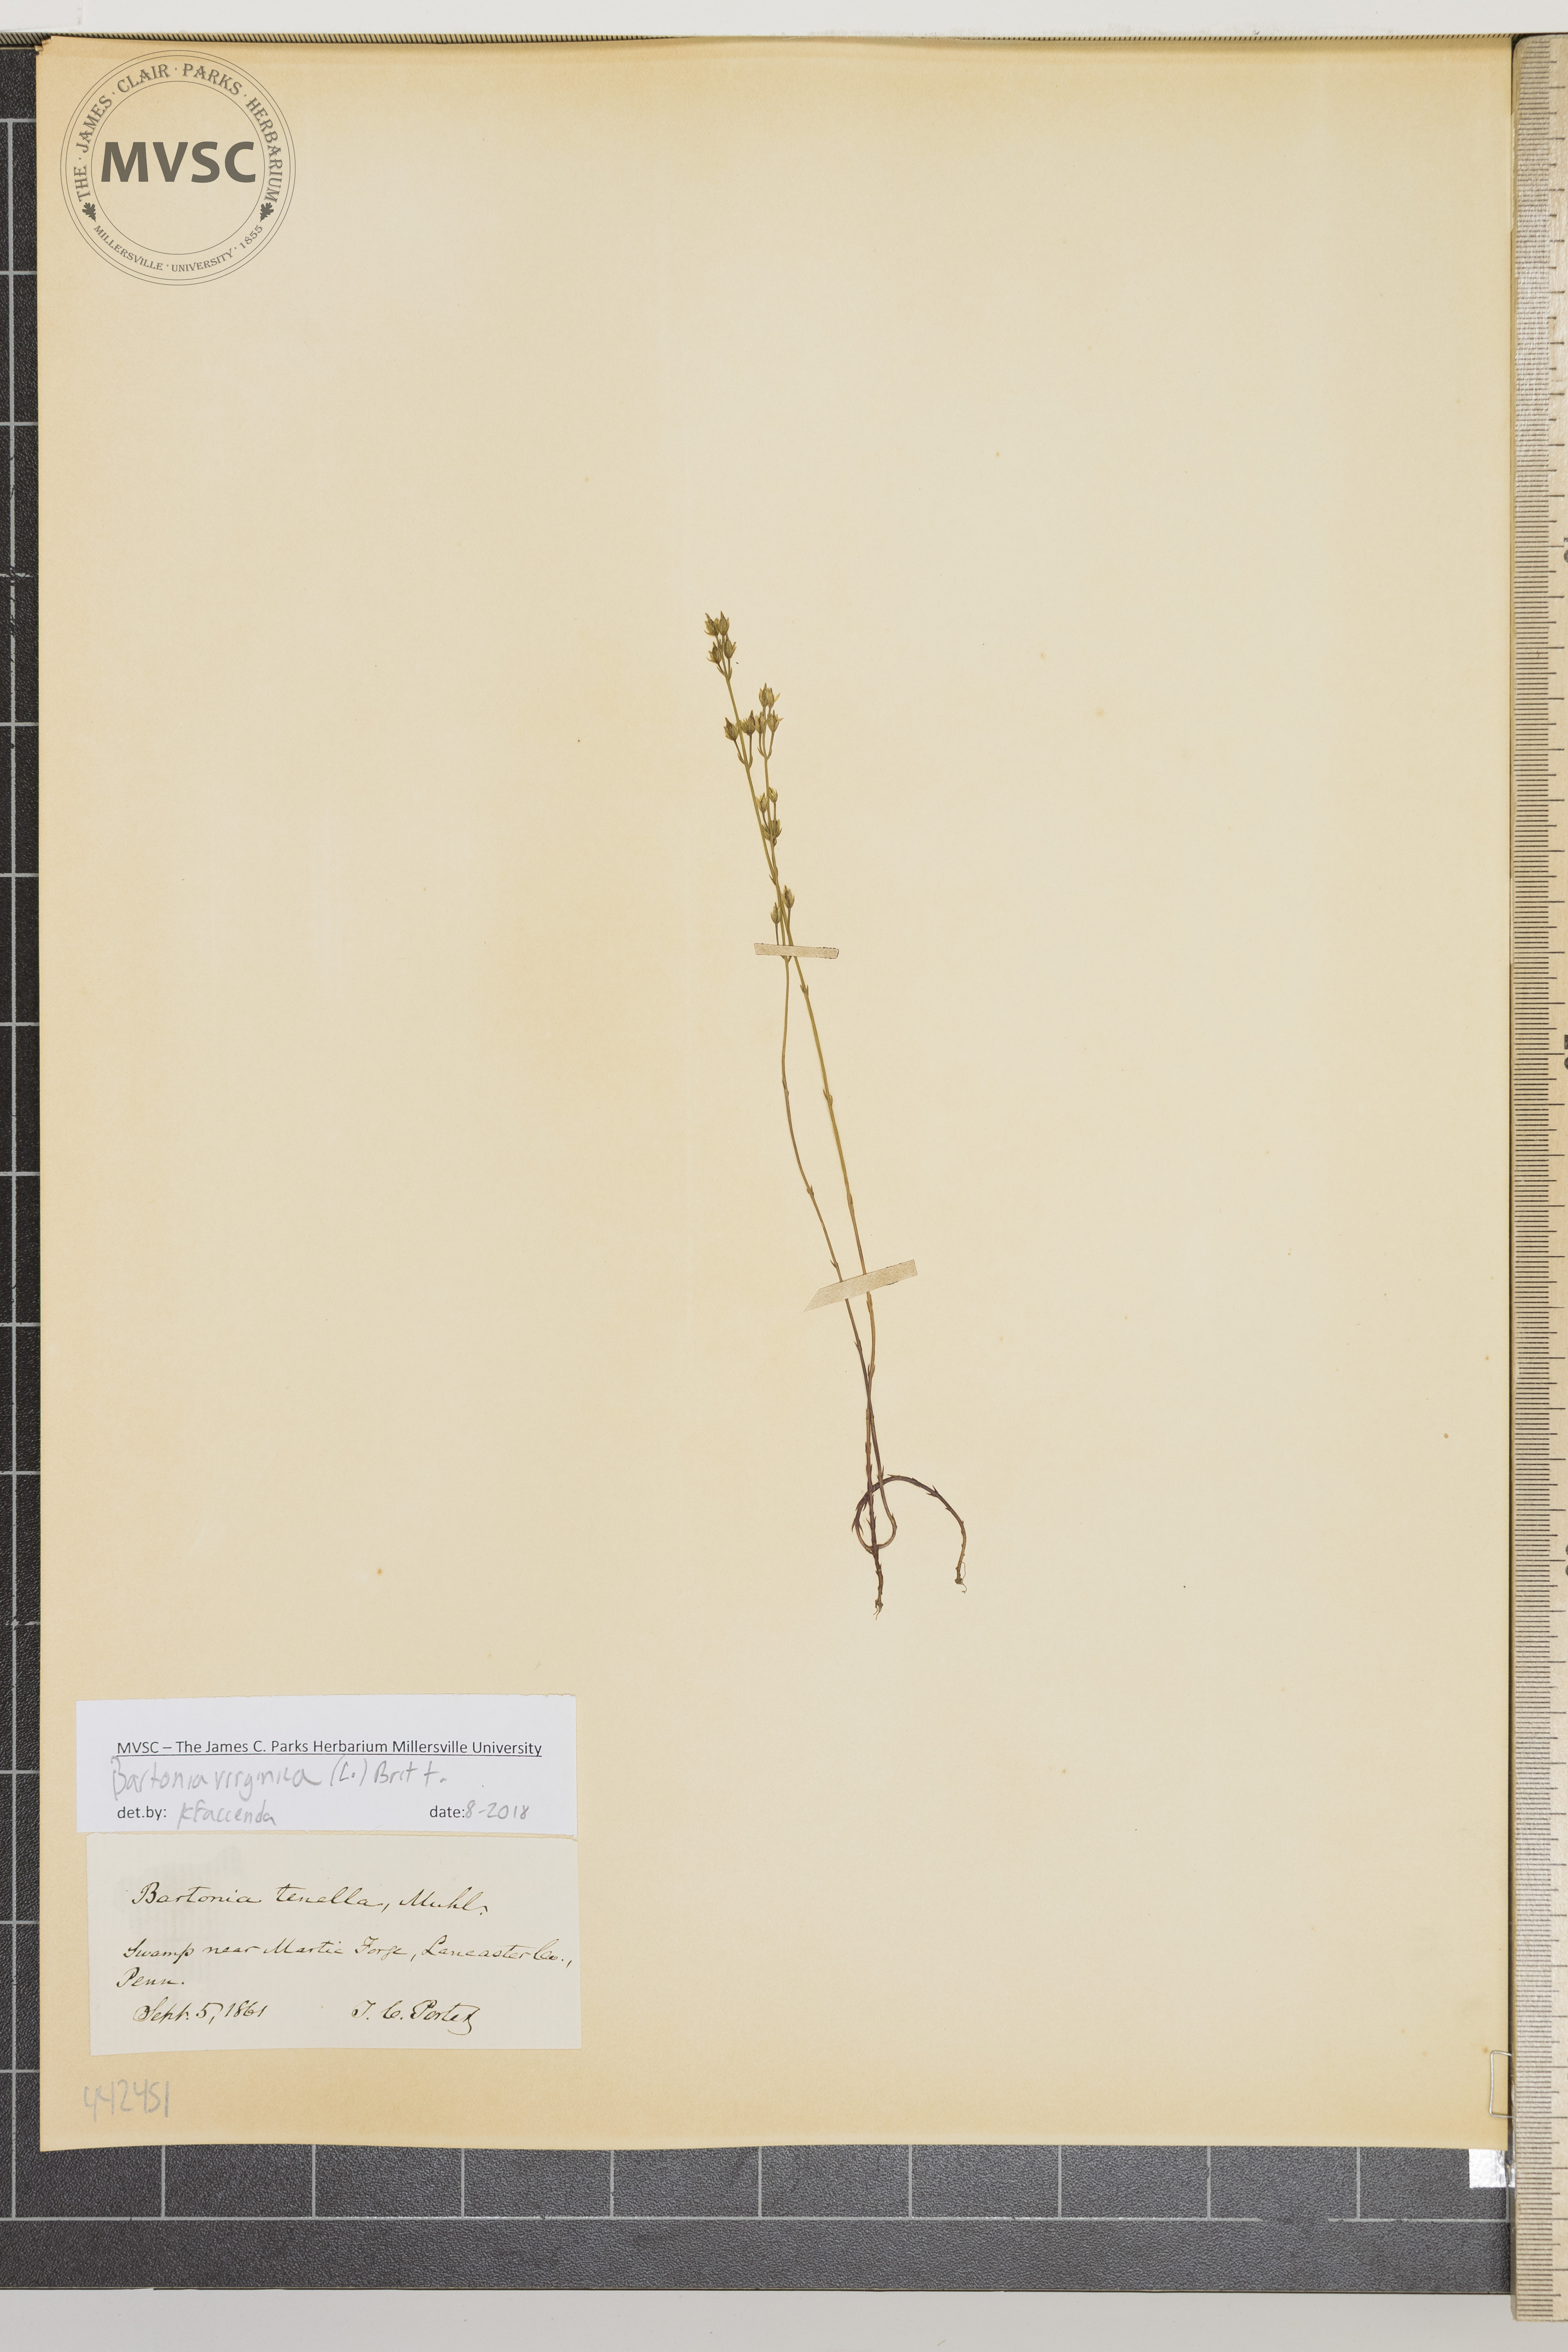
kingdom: Plantae
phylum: Tracheophyta
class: Magnoliopsida
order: Gentianales
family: Gentianaceae
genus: Bartonia
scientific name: Bartonia virginica
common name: Yellow bartonia
